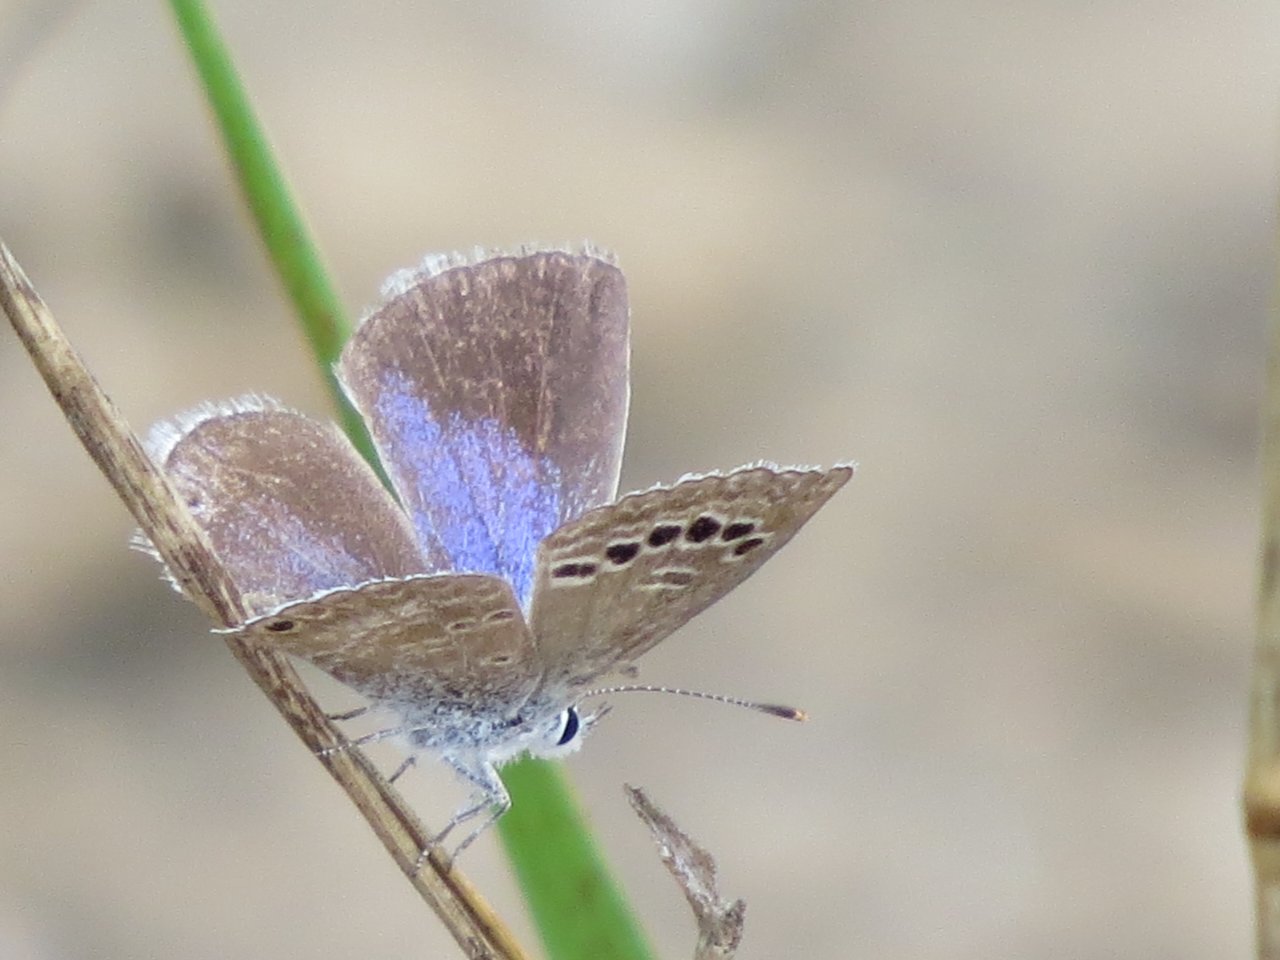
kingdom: Animalia
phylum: Arthropoda
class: Insecta
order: Lepidoptera
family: Lycaenidae
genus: Echinargus
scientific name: Echinargus isola
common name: Reakirt's Blue
